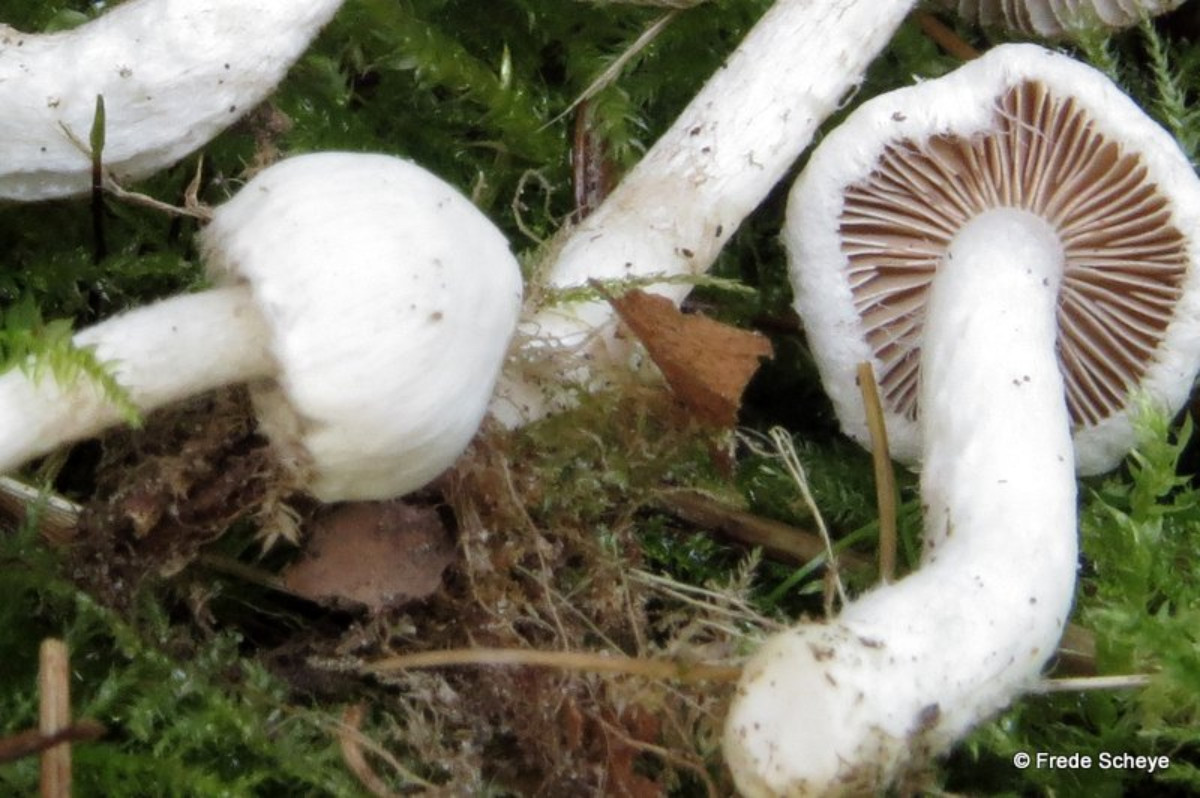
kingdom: Fungi
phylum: Basidiomycota
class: Agaricomycetes
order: Agaricales
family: Inocybaceae
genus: Inocybe
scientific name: Inocybe
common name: almindelig trævlhat
